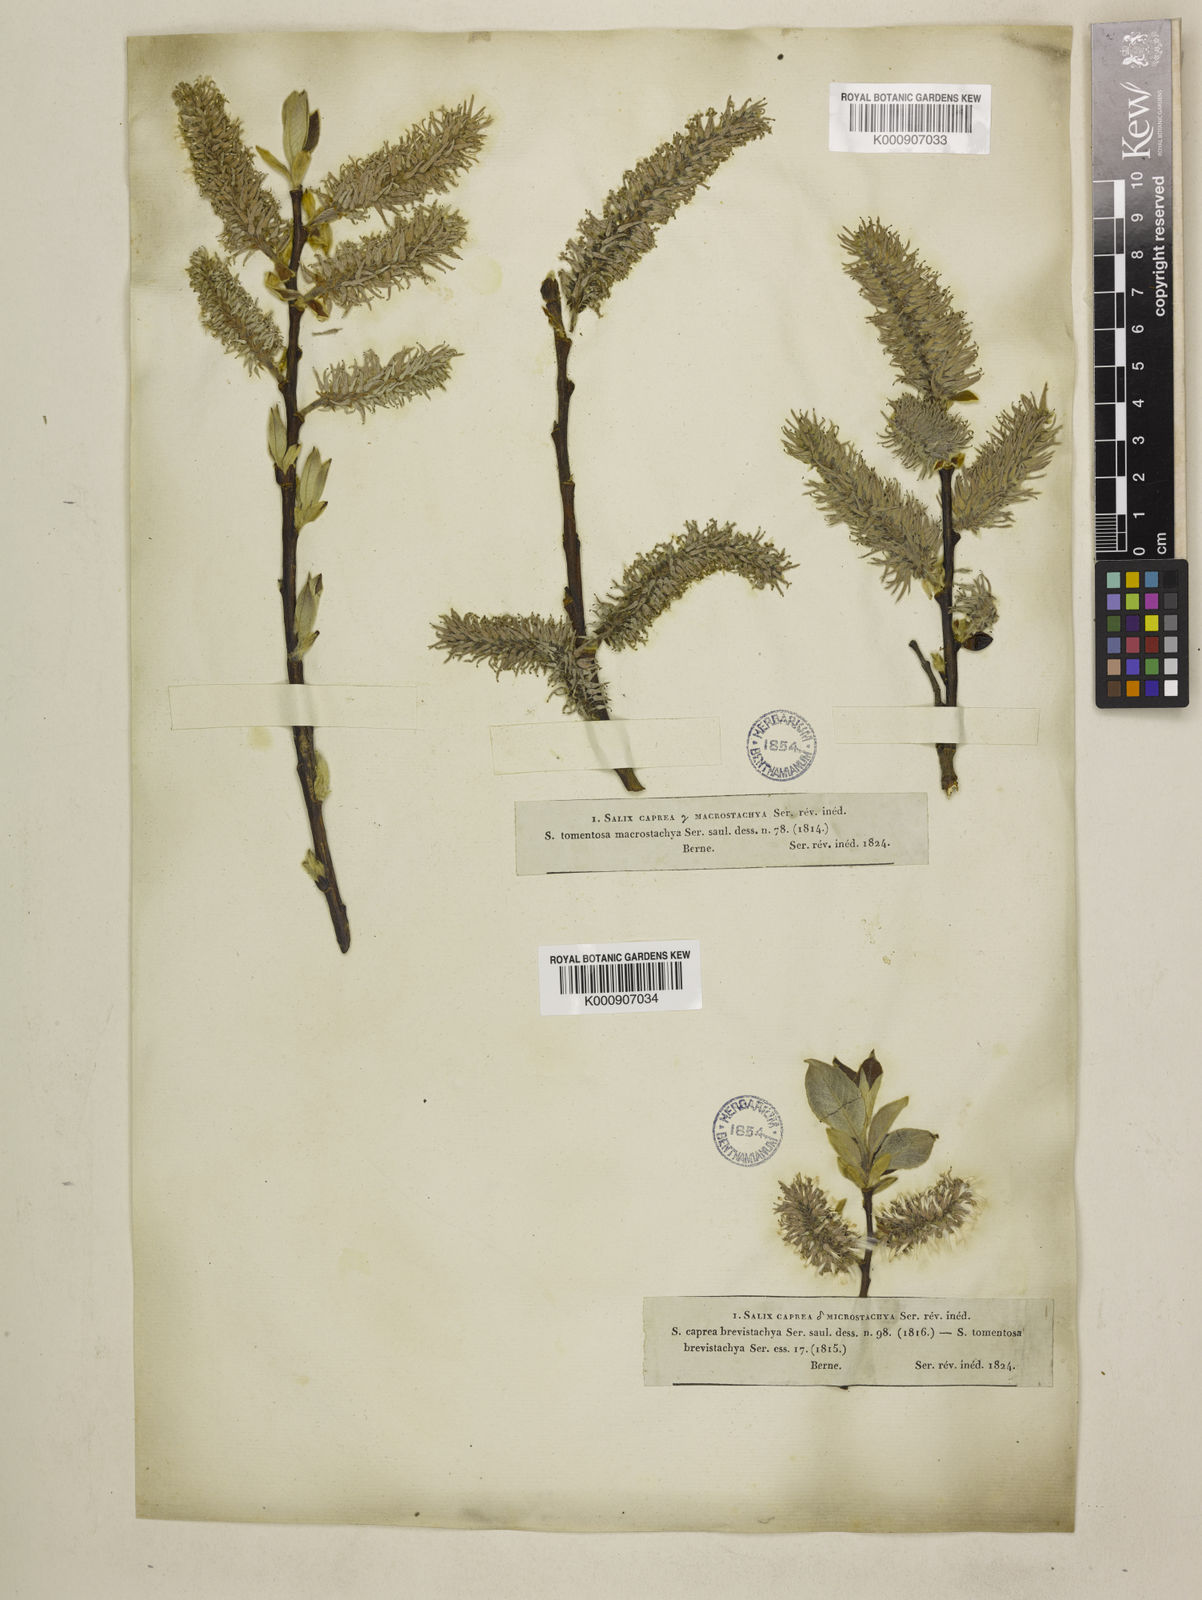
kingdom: Plantae
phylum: Tracheophyta
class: Magnoliopsida
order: Malpighiales
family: Salicaceae
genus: Salix
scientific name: Salix caprea
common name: Goat willow
